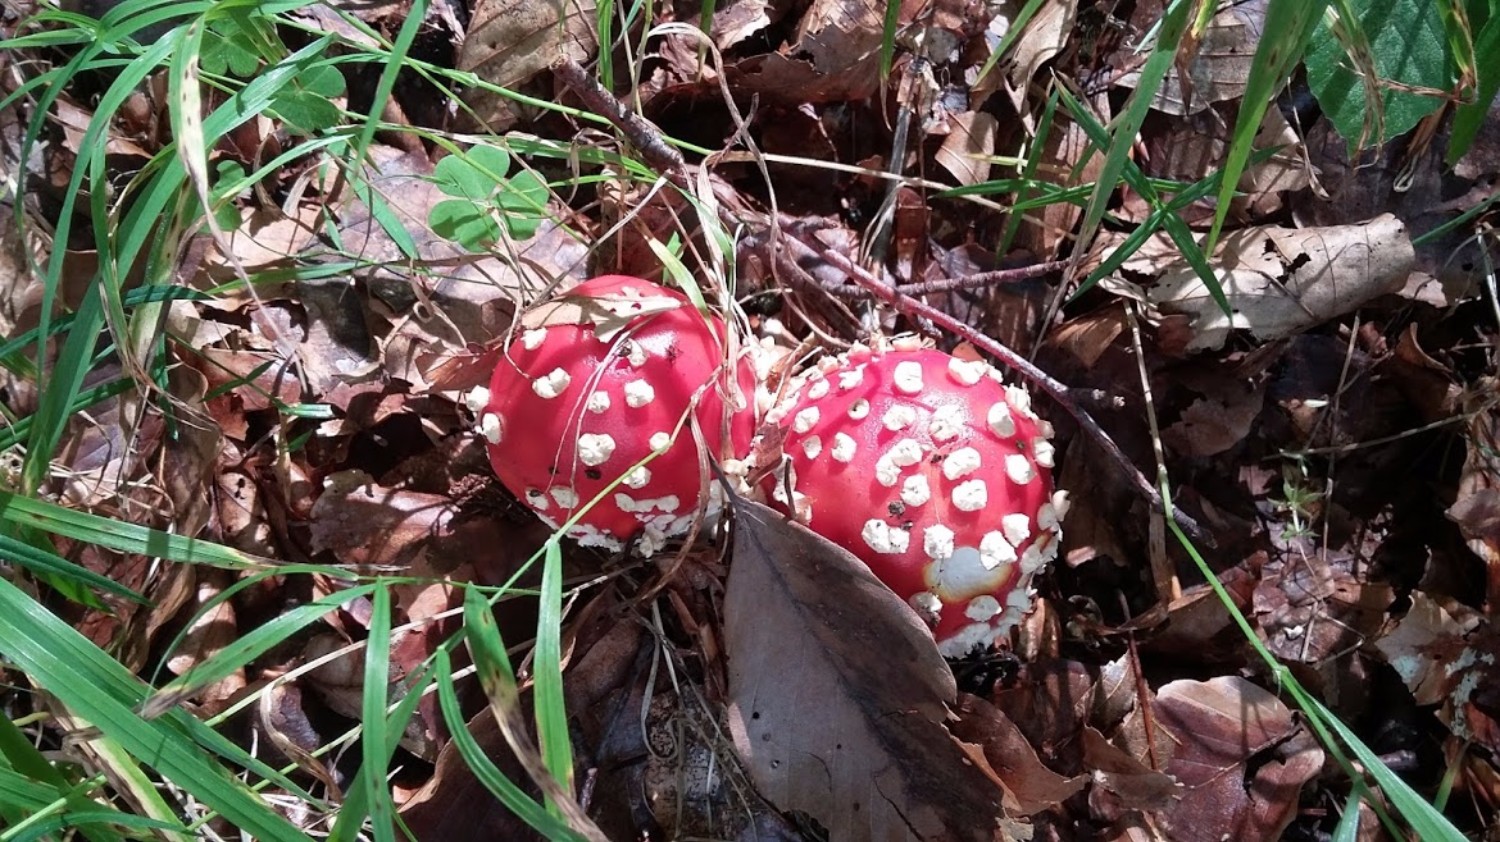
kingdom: Fungi
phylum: Basidiomycota
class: Agaricomycetes
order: Agaricales
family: Amanitaceae
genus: Amanita
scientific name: Amanita muscaria
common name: rød fluesvamp
